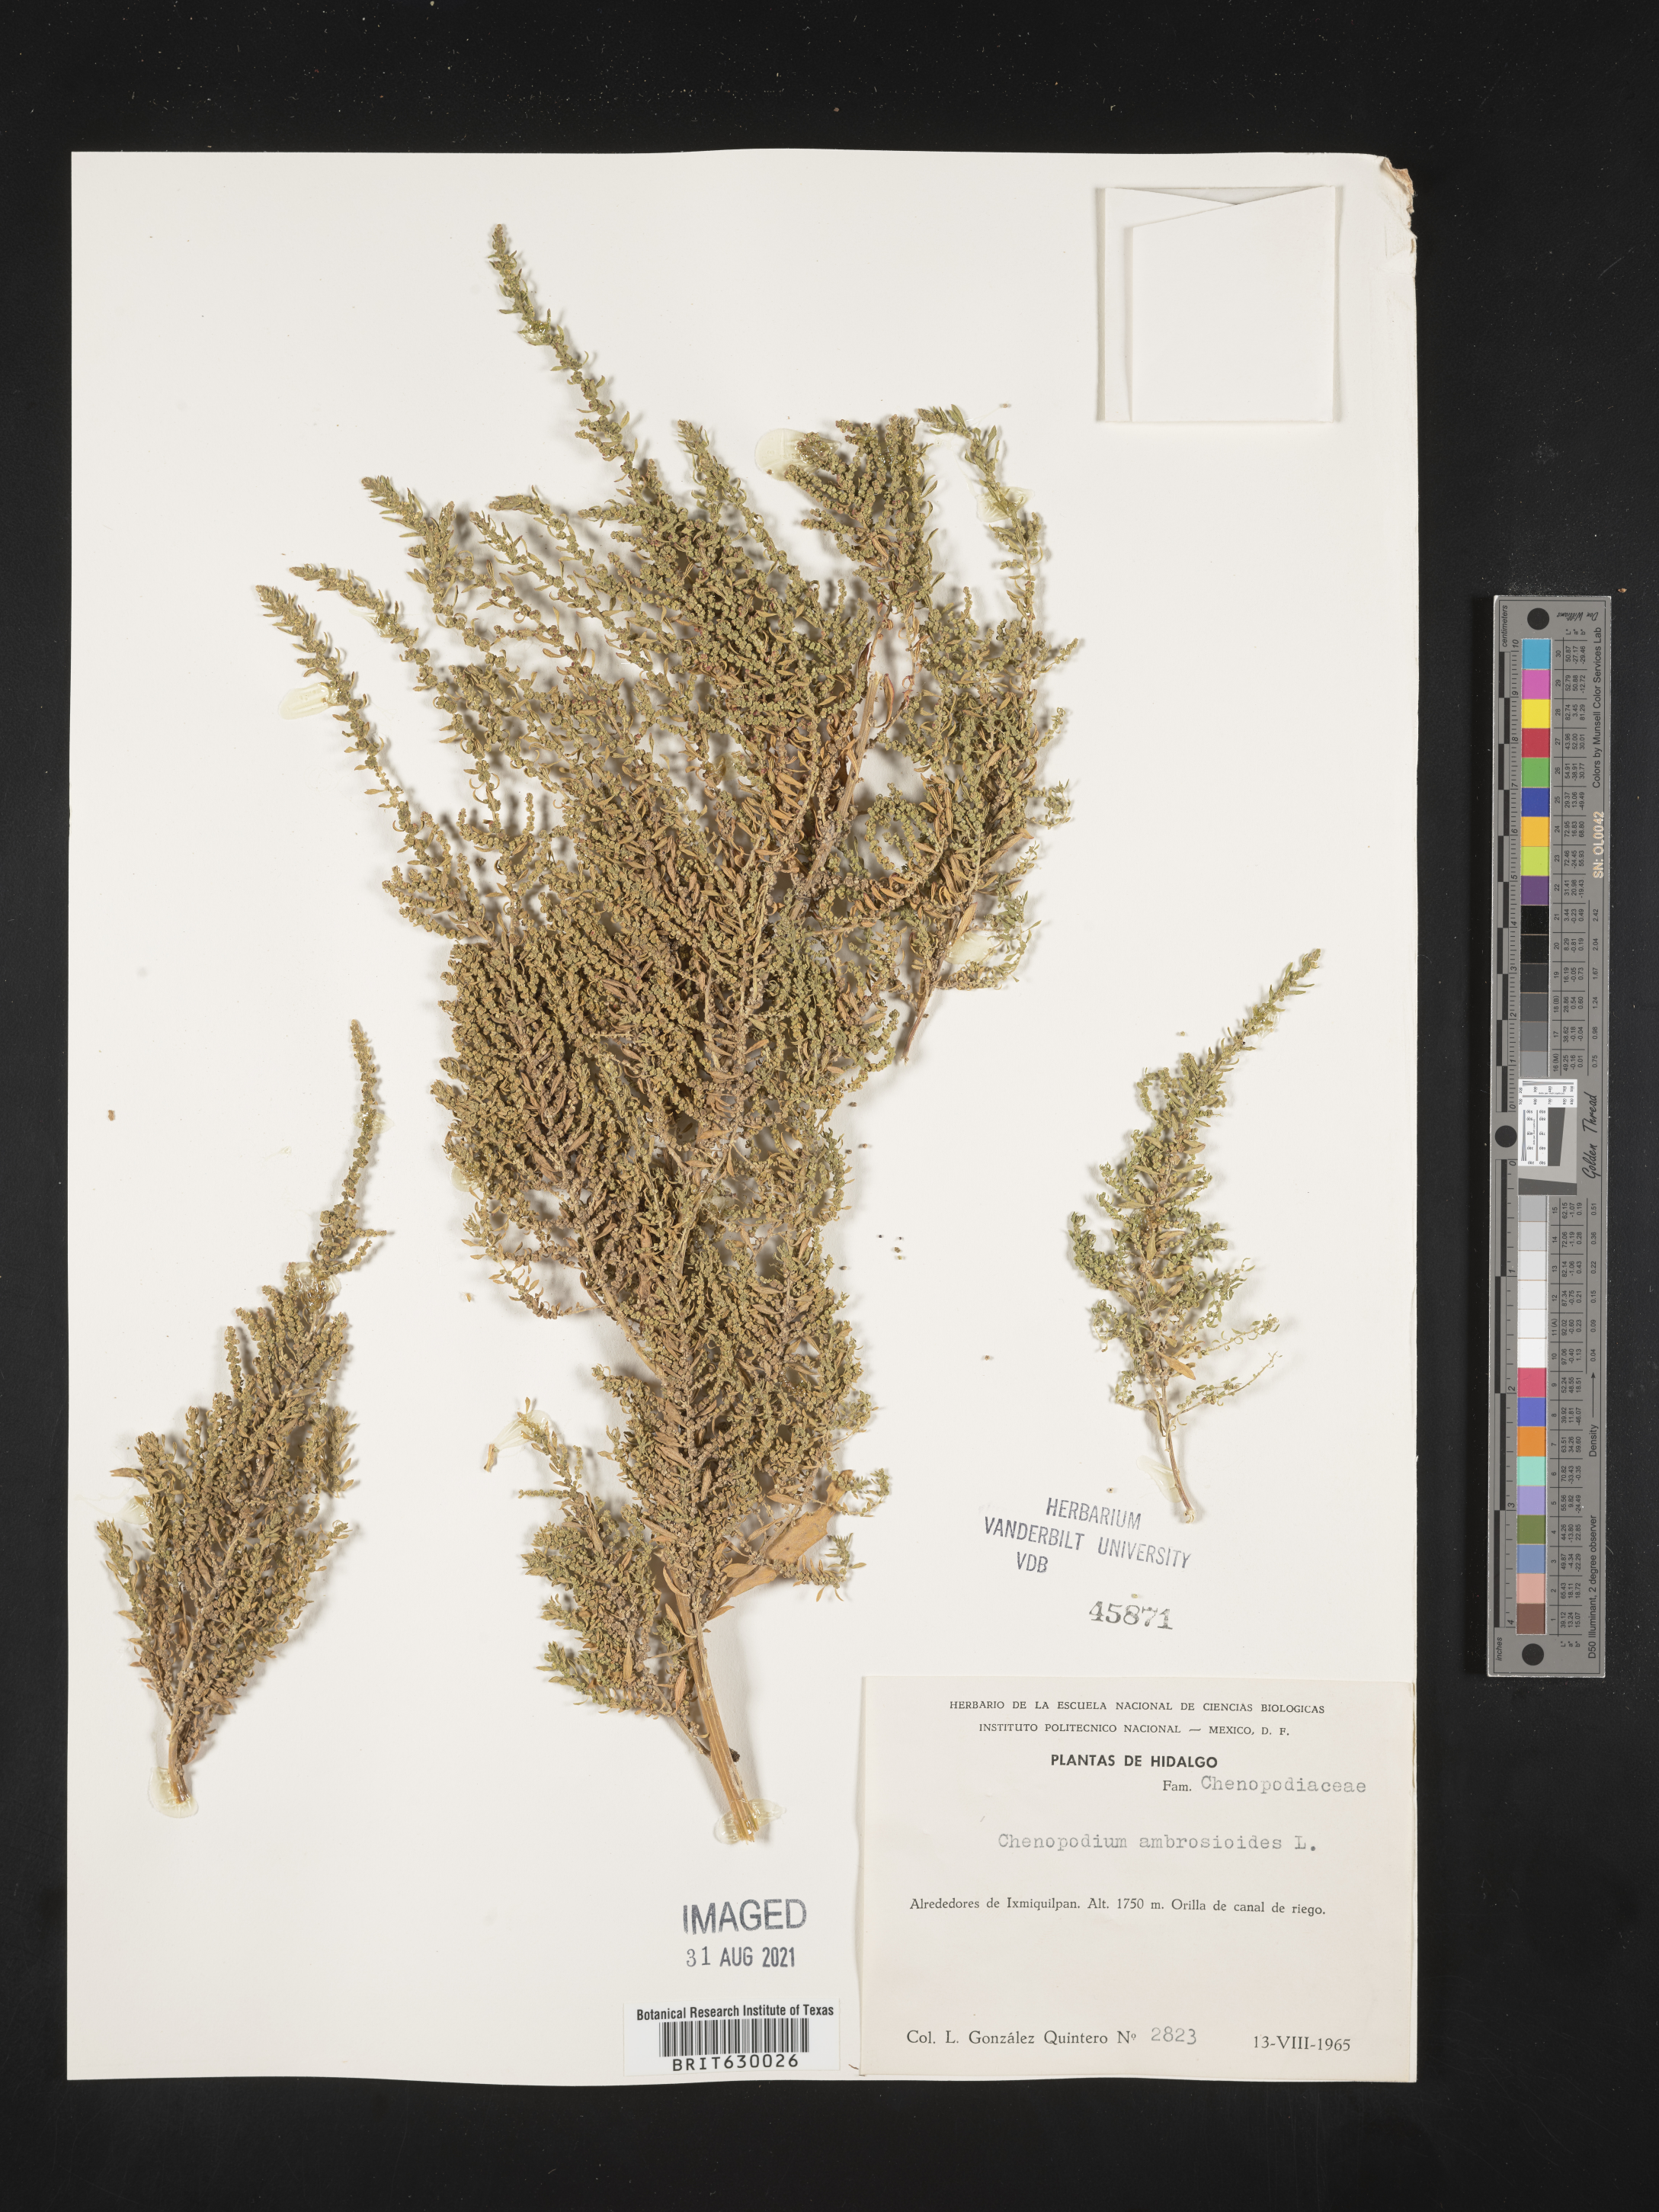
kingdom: Plantae
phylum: Tracheophyta
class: Magnoliopsida
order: Caryophyllales
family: Amaranthaceae
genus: Chenopodium
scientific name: Chenopodium
